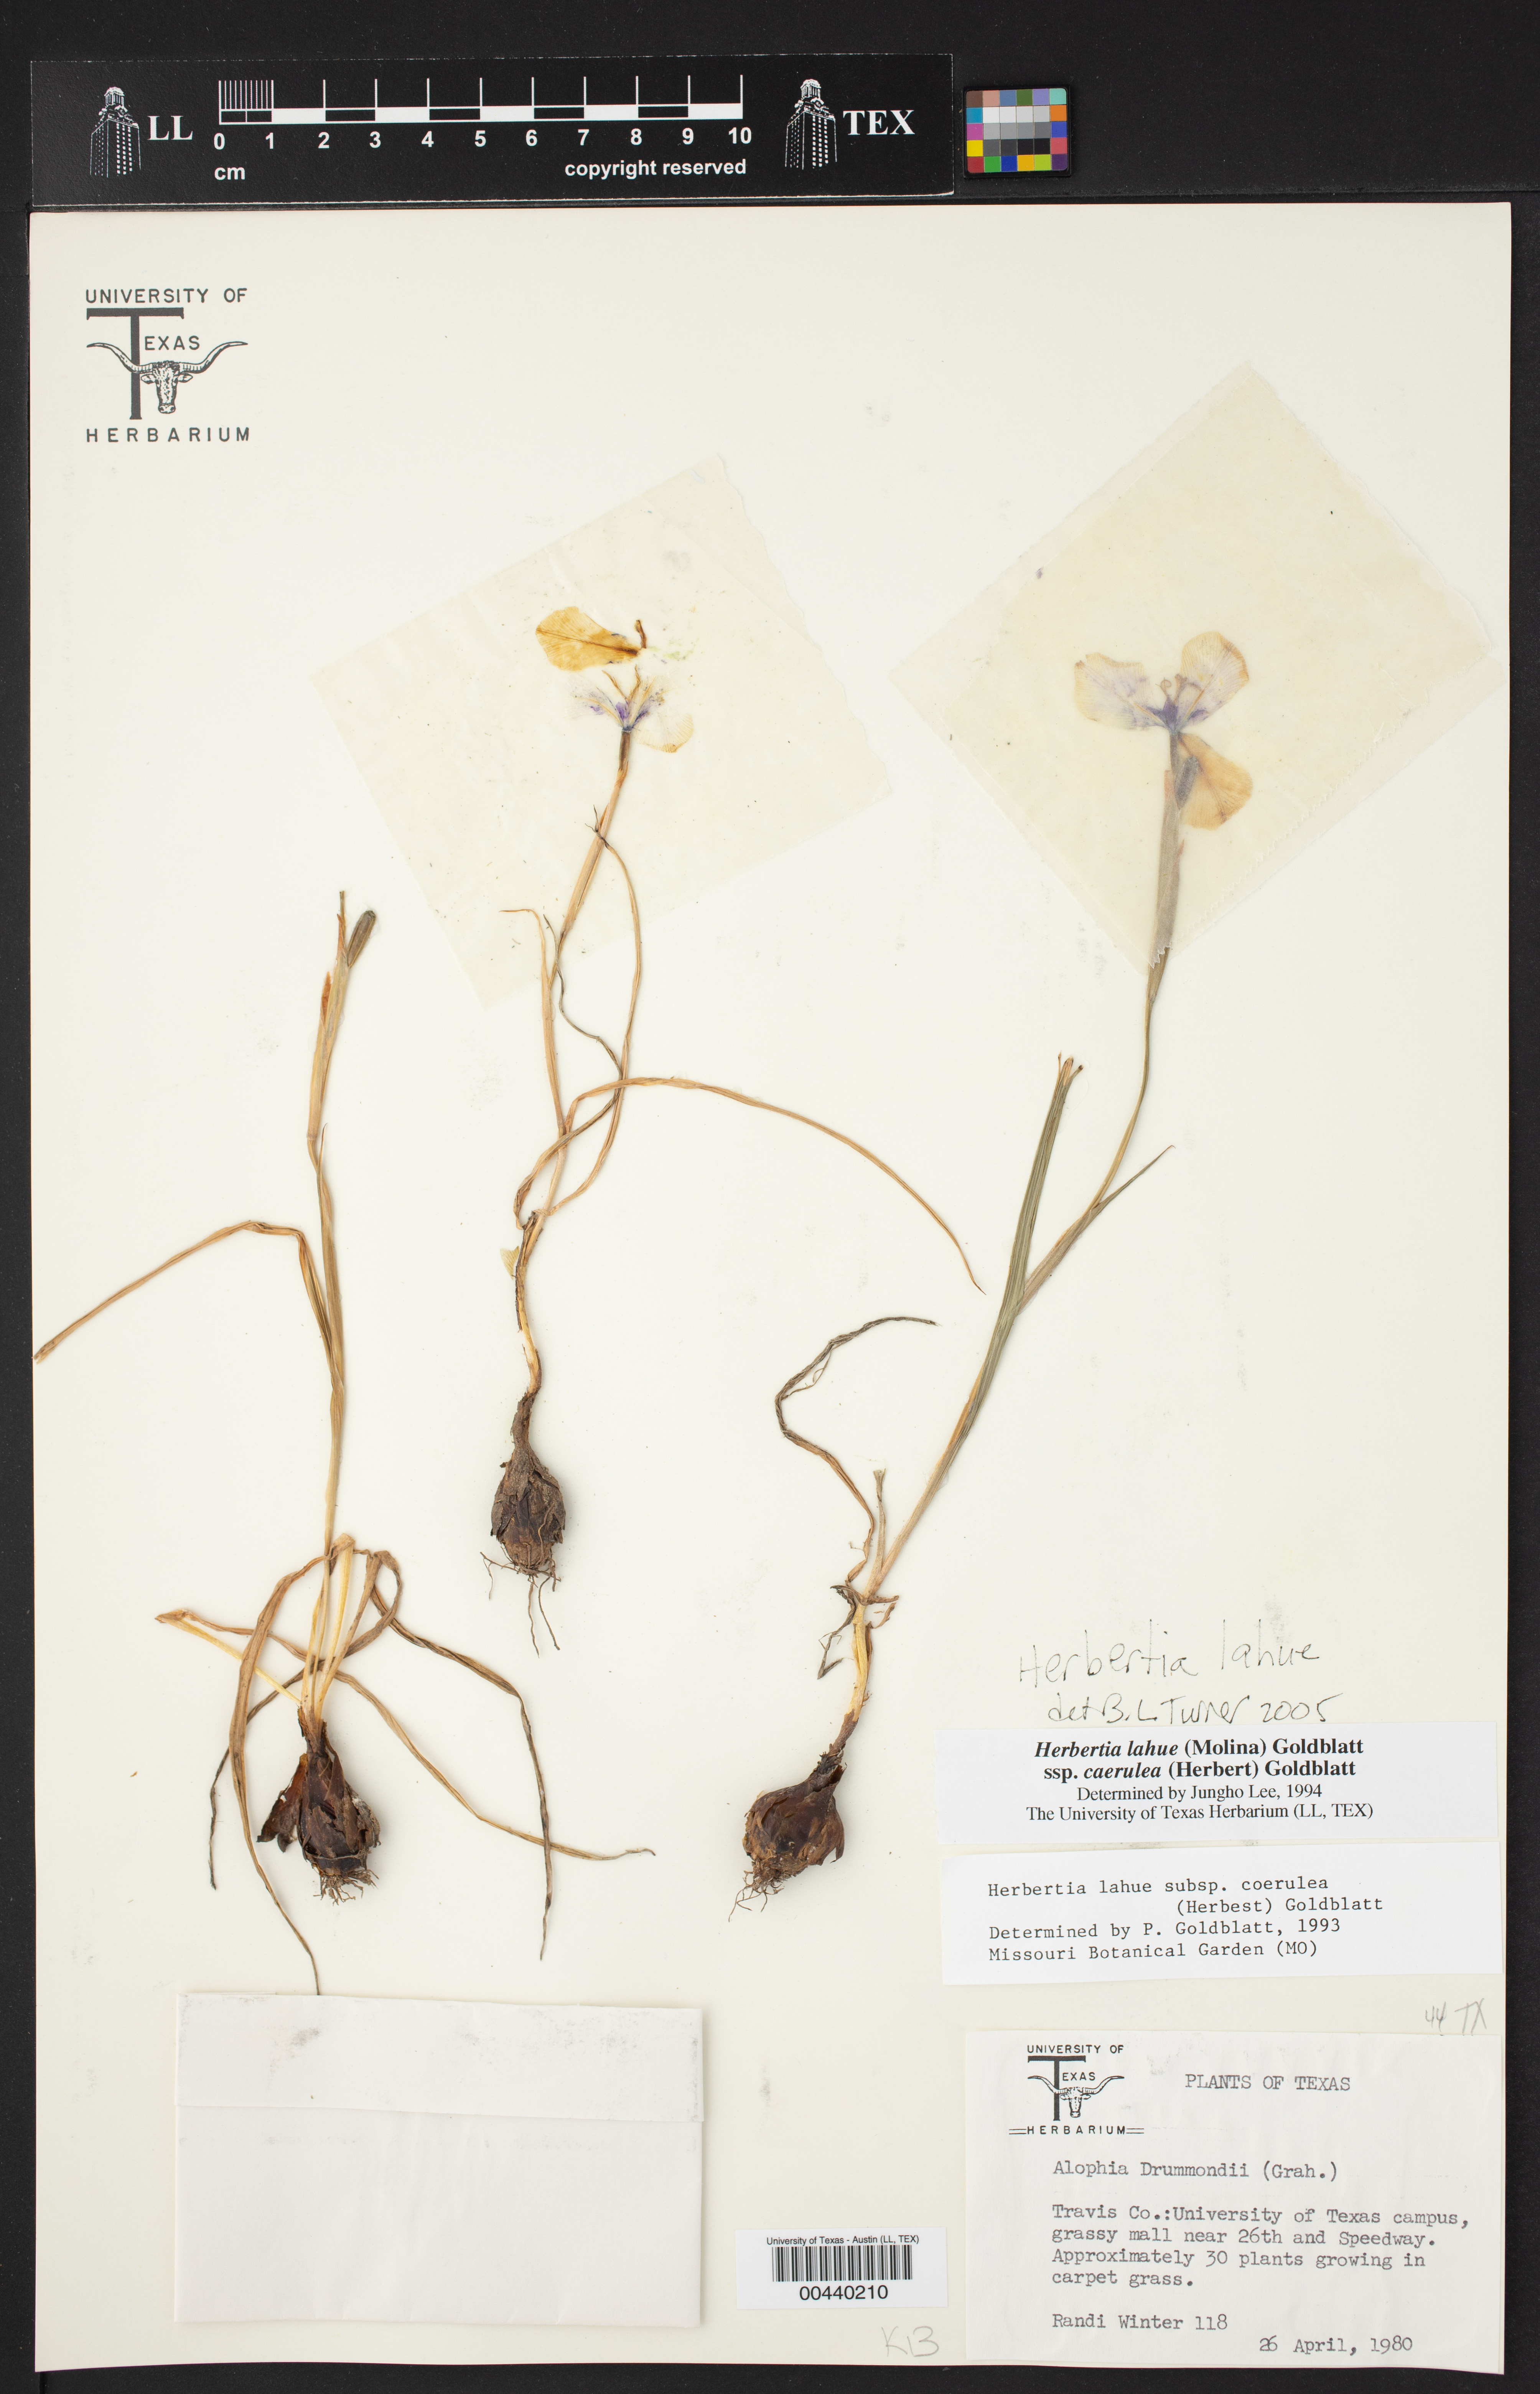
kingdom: Plantae
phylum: Tracheophyta
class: Liliopsida
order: Asparagales
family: Iridaceae
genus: Herbertia
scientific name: Herbertia lahue
